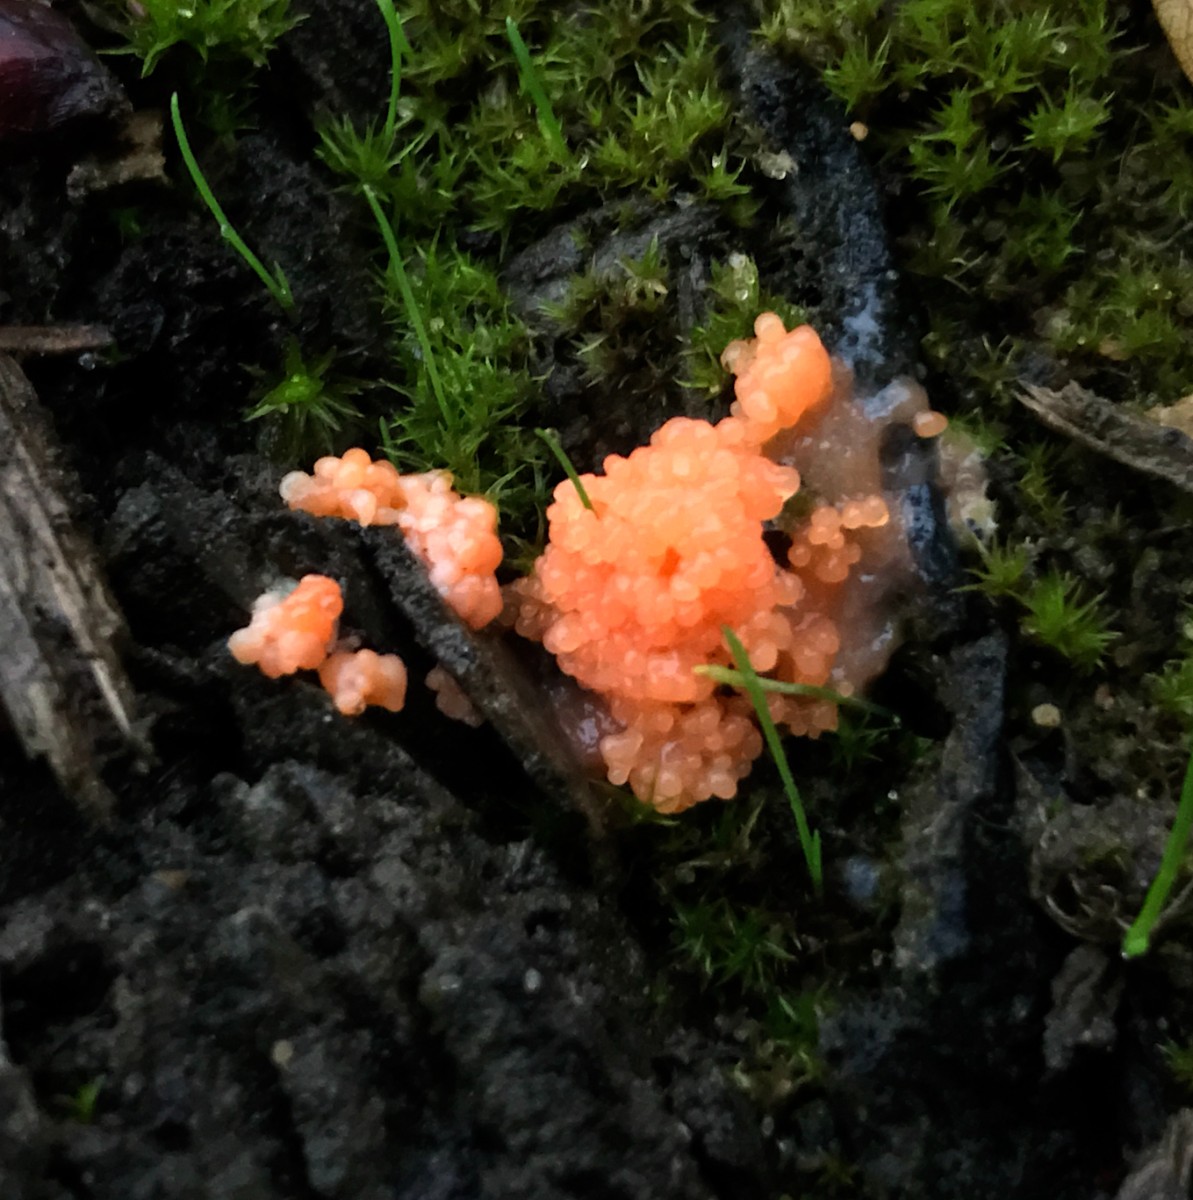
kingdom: Protozoa
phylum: Mycetozoa
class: Myxomycetes
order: Cribrariales
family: Tubiferaceae
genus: Tubifera
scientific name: Tubifera ferruginosa
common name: kanel-støvrør
